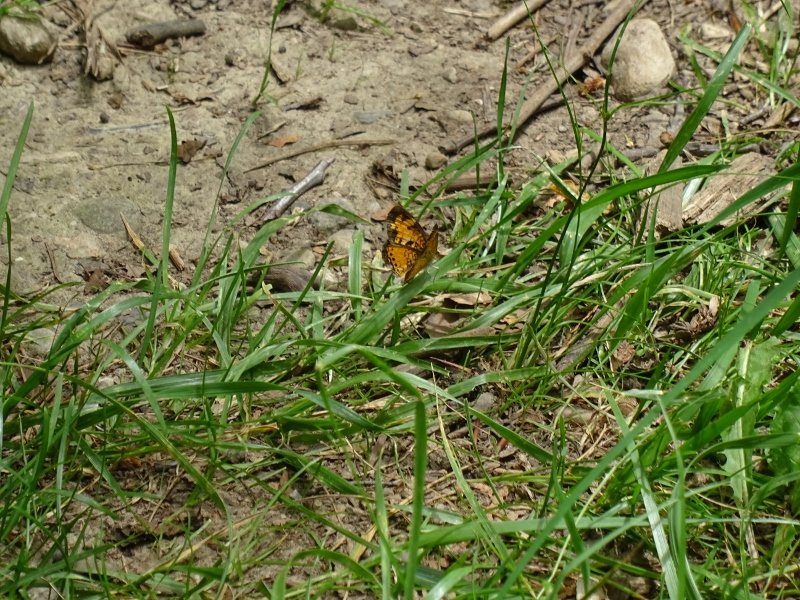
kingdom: Animalia
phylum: Arthropoda
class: Insecta
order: Lepidoptera
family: Nymphalidae
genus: Phyciodes
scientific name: Phyciodes
